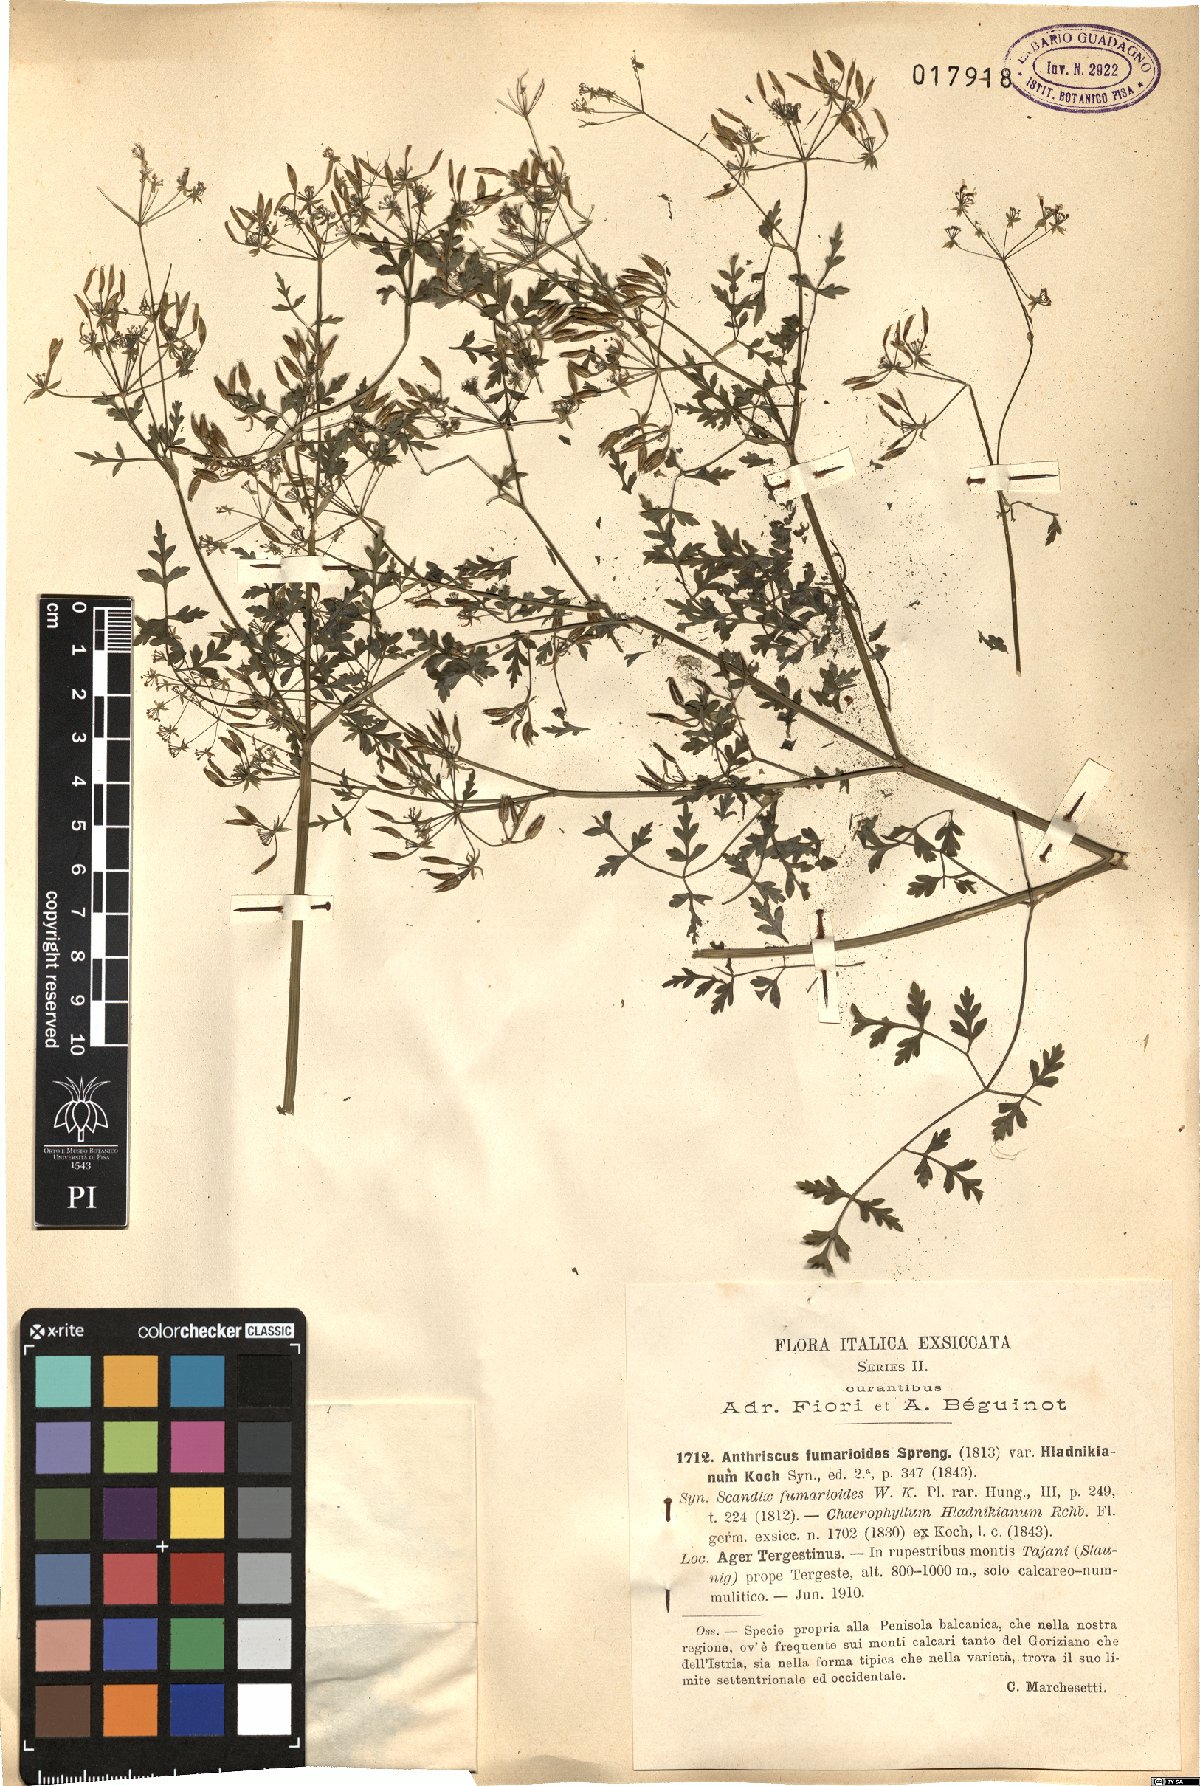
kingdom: Plantae
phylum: Tracheophyta
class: Magnoliopsida
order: Apiales
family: Apiaceae
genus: Anthriscus
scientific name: Anthriscus fumarioides
